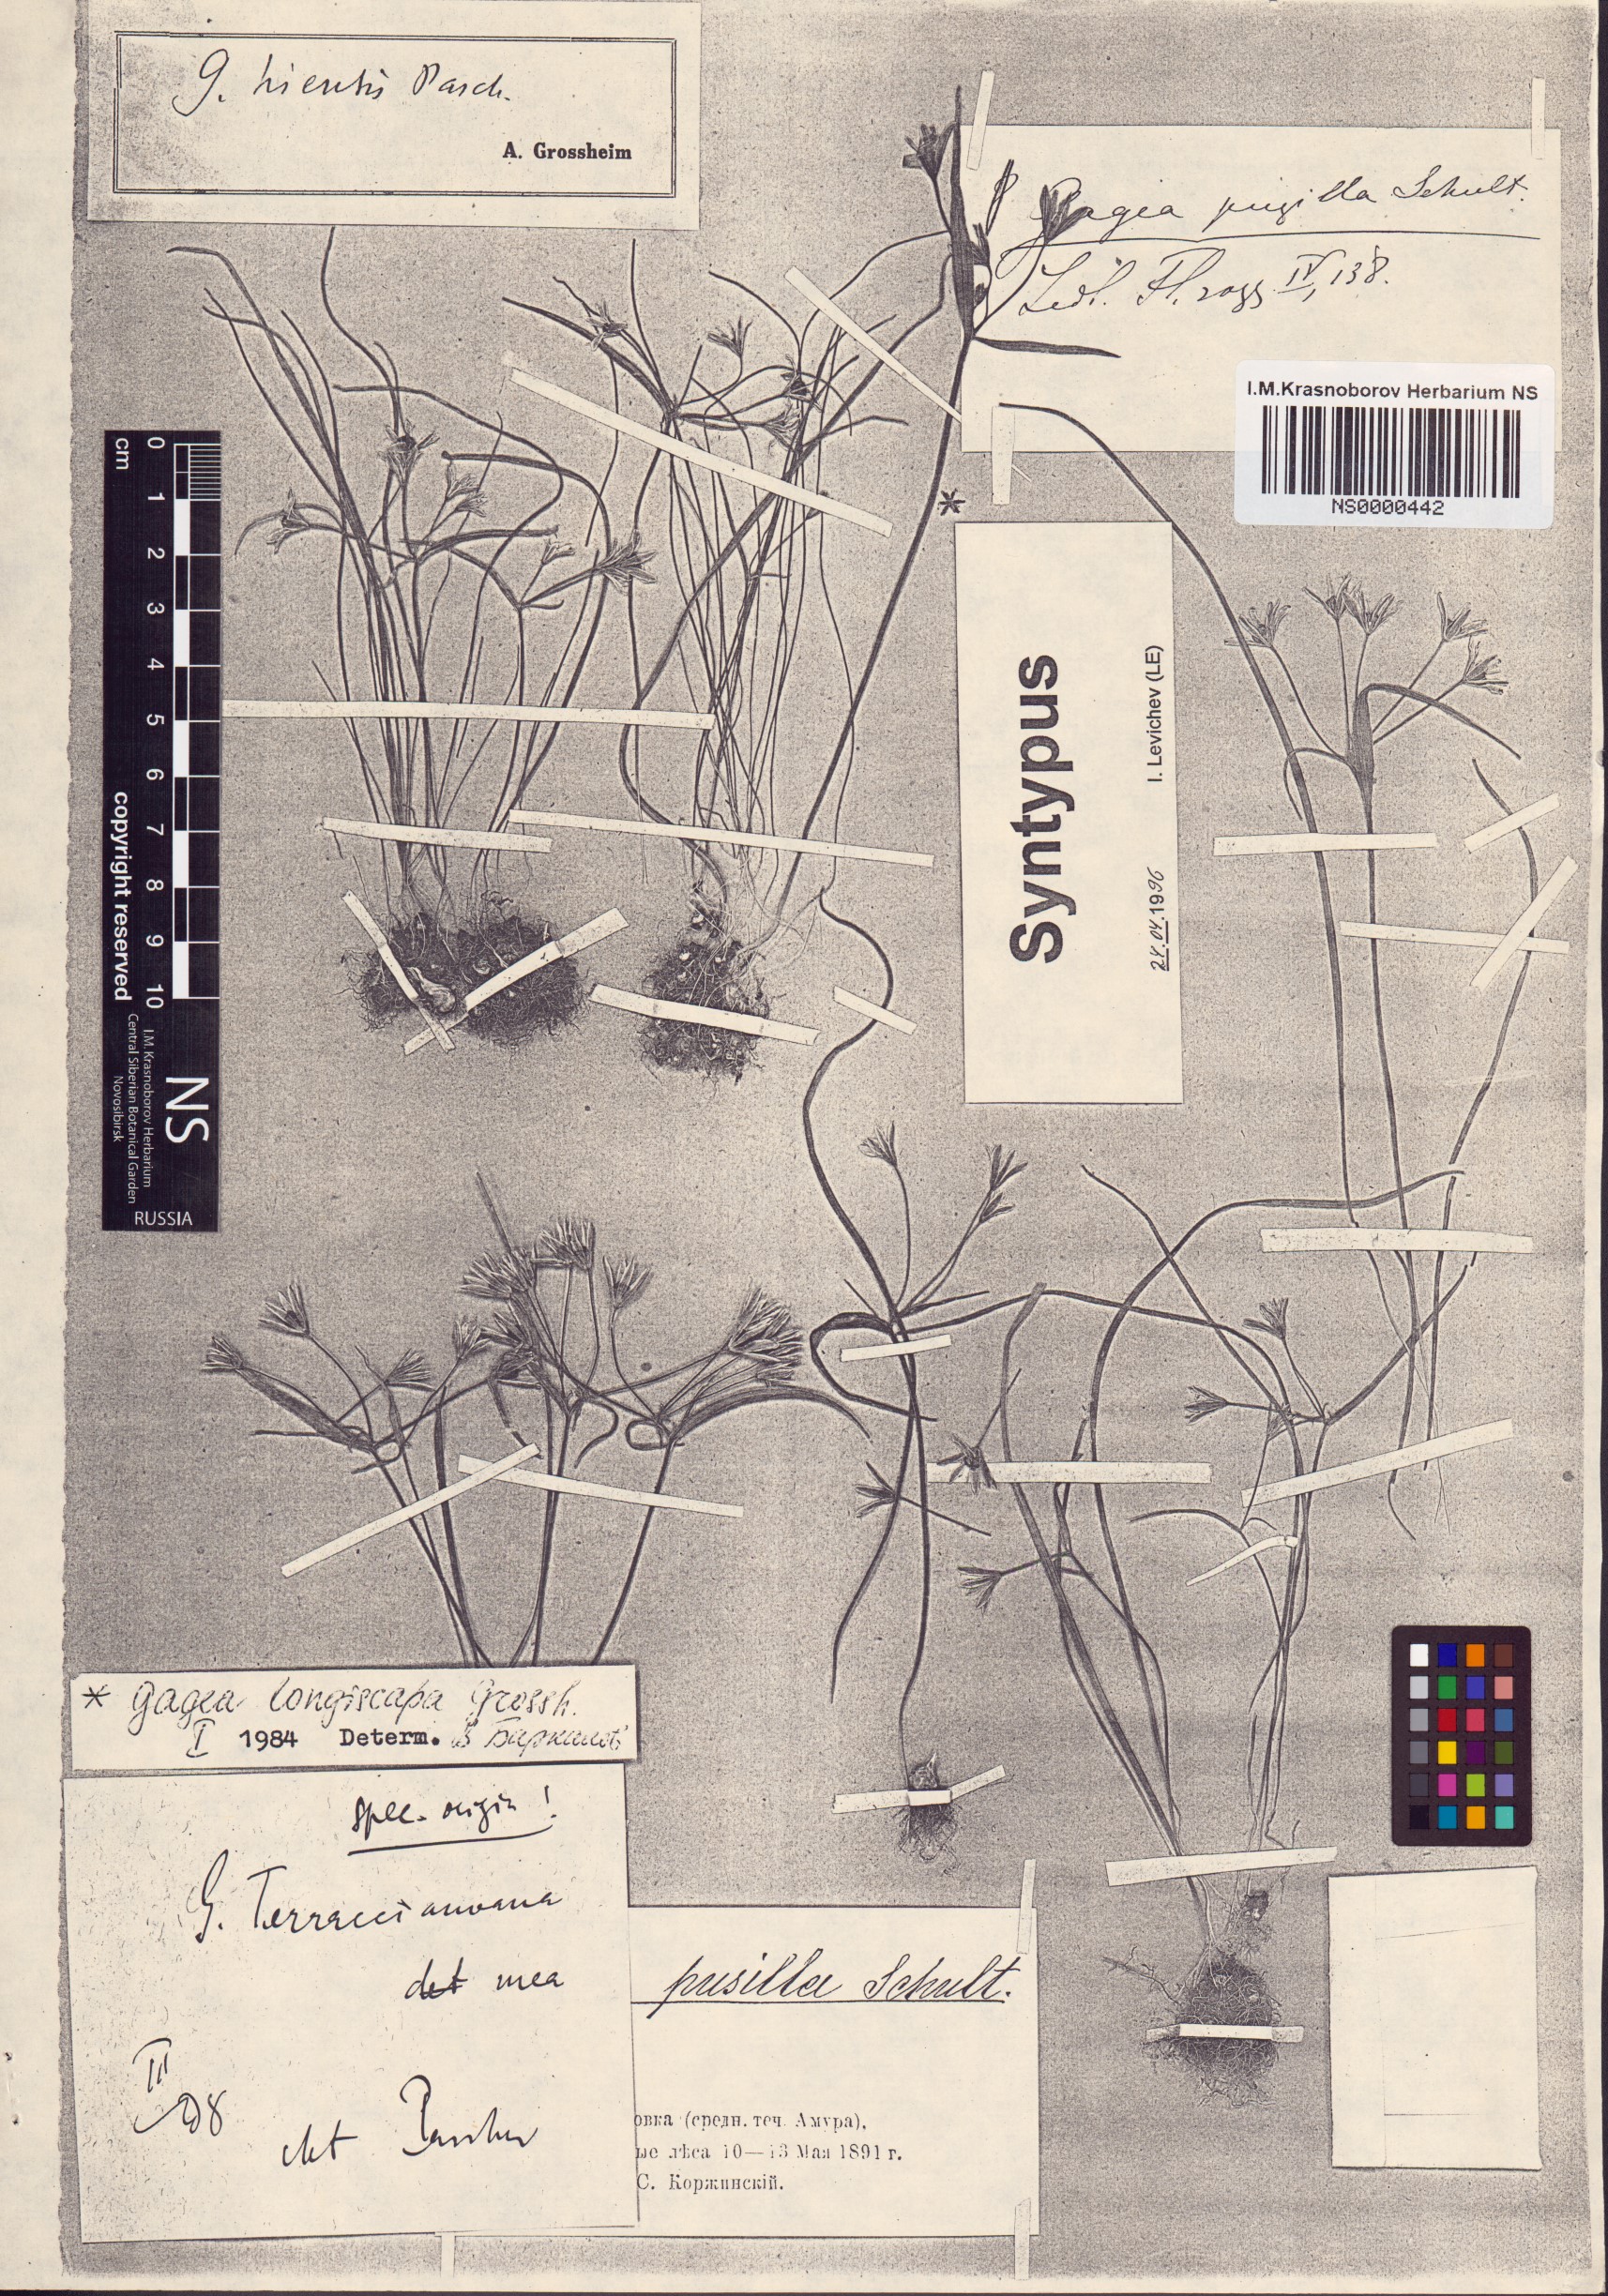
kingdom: Plantae
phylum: Tracheophyta
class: Liliopsida
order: Liliales
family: Liliaceae
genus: Gagea
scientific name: Gagea hiensis
